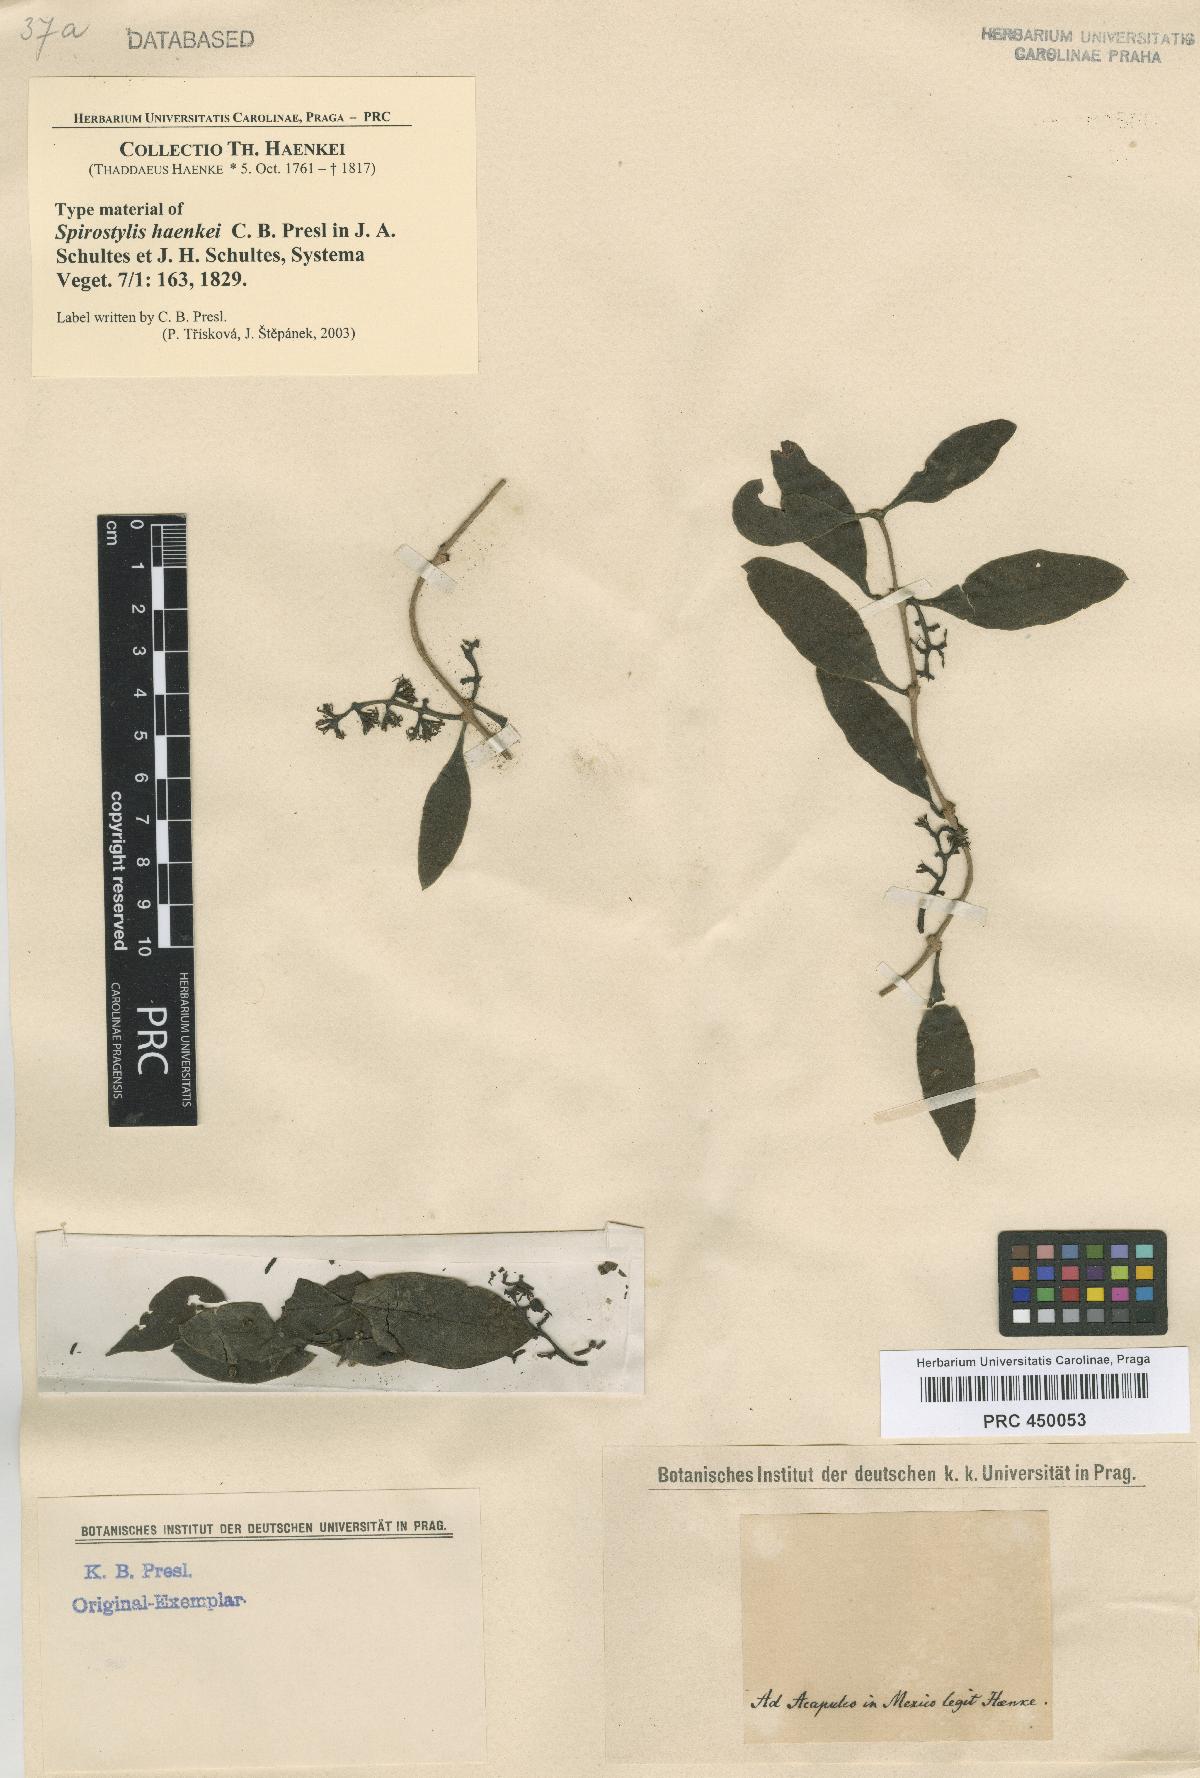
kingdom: Plantae
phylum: Tracheophyta
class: Magnoliopsida
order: Santalales
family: Loranthaceae
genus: Struthanthus
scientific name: Struthanthus interruptus
